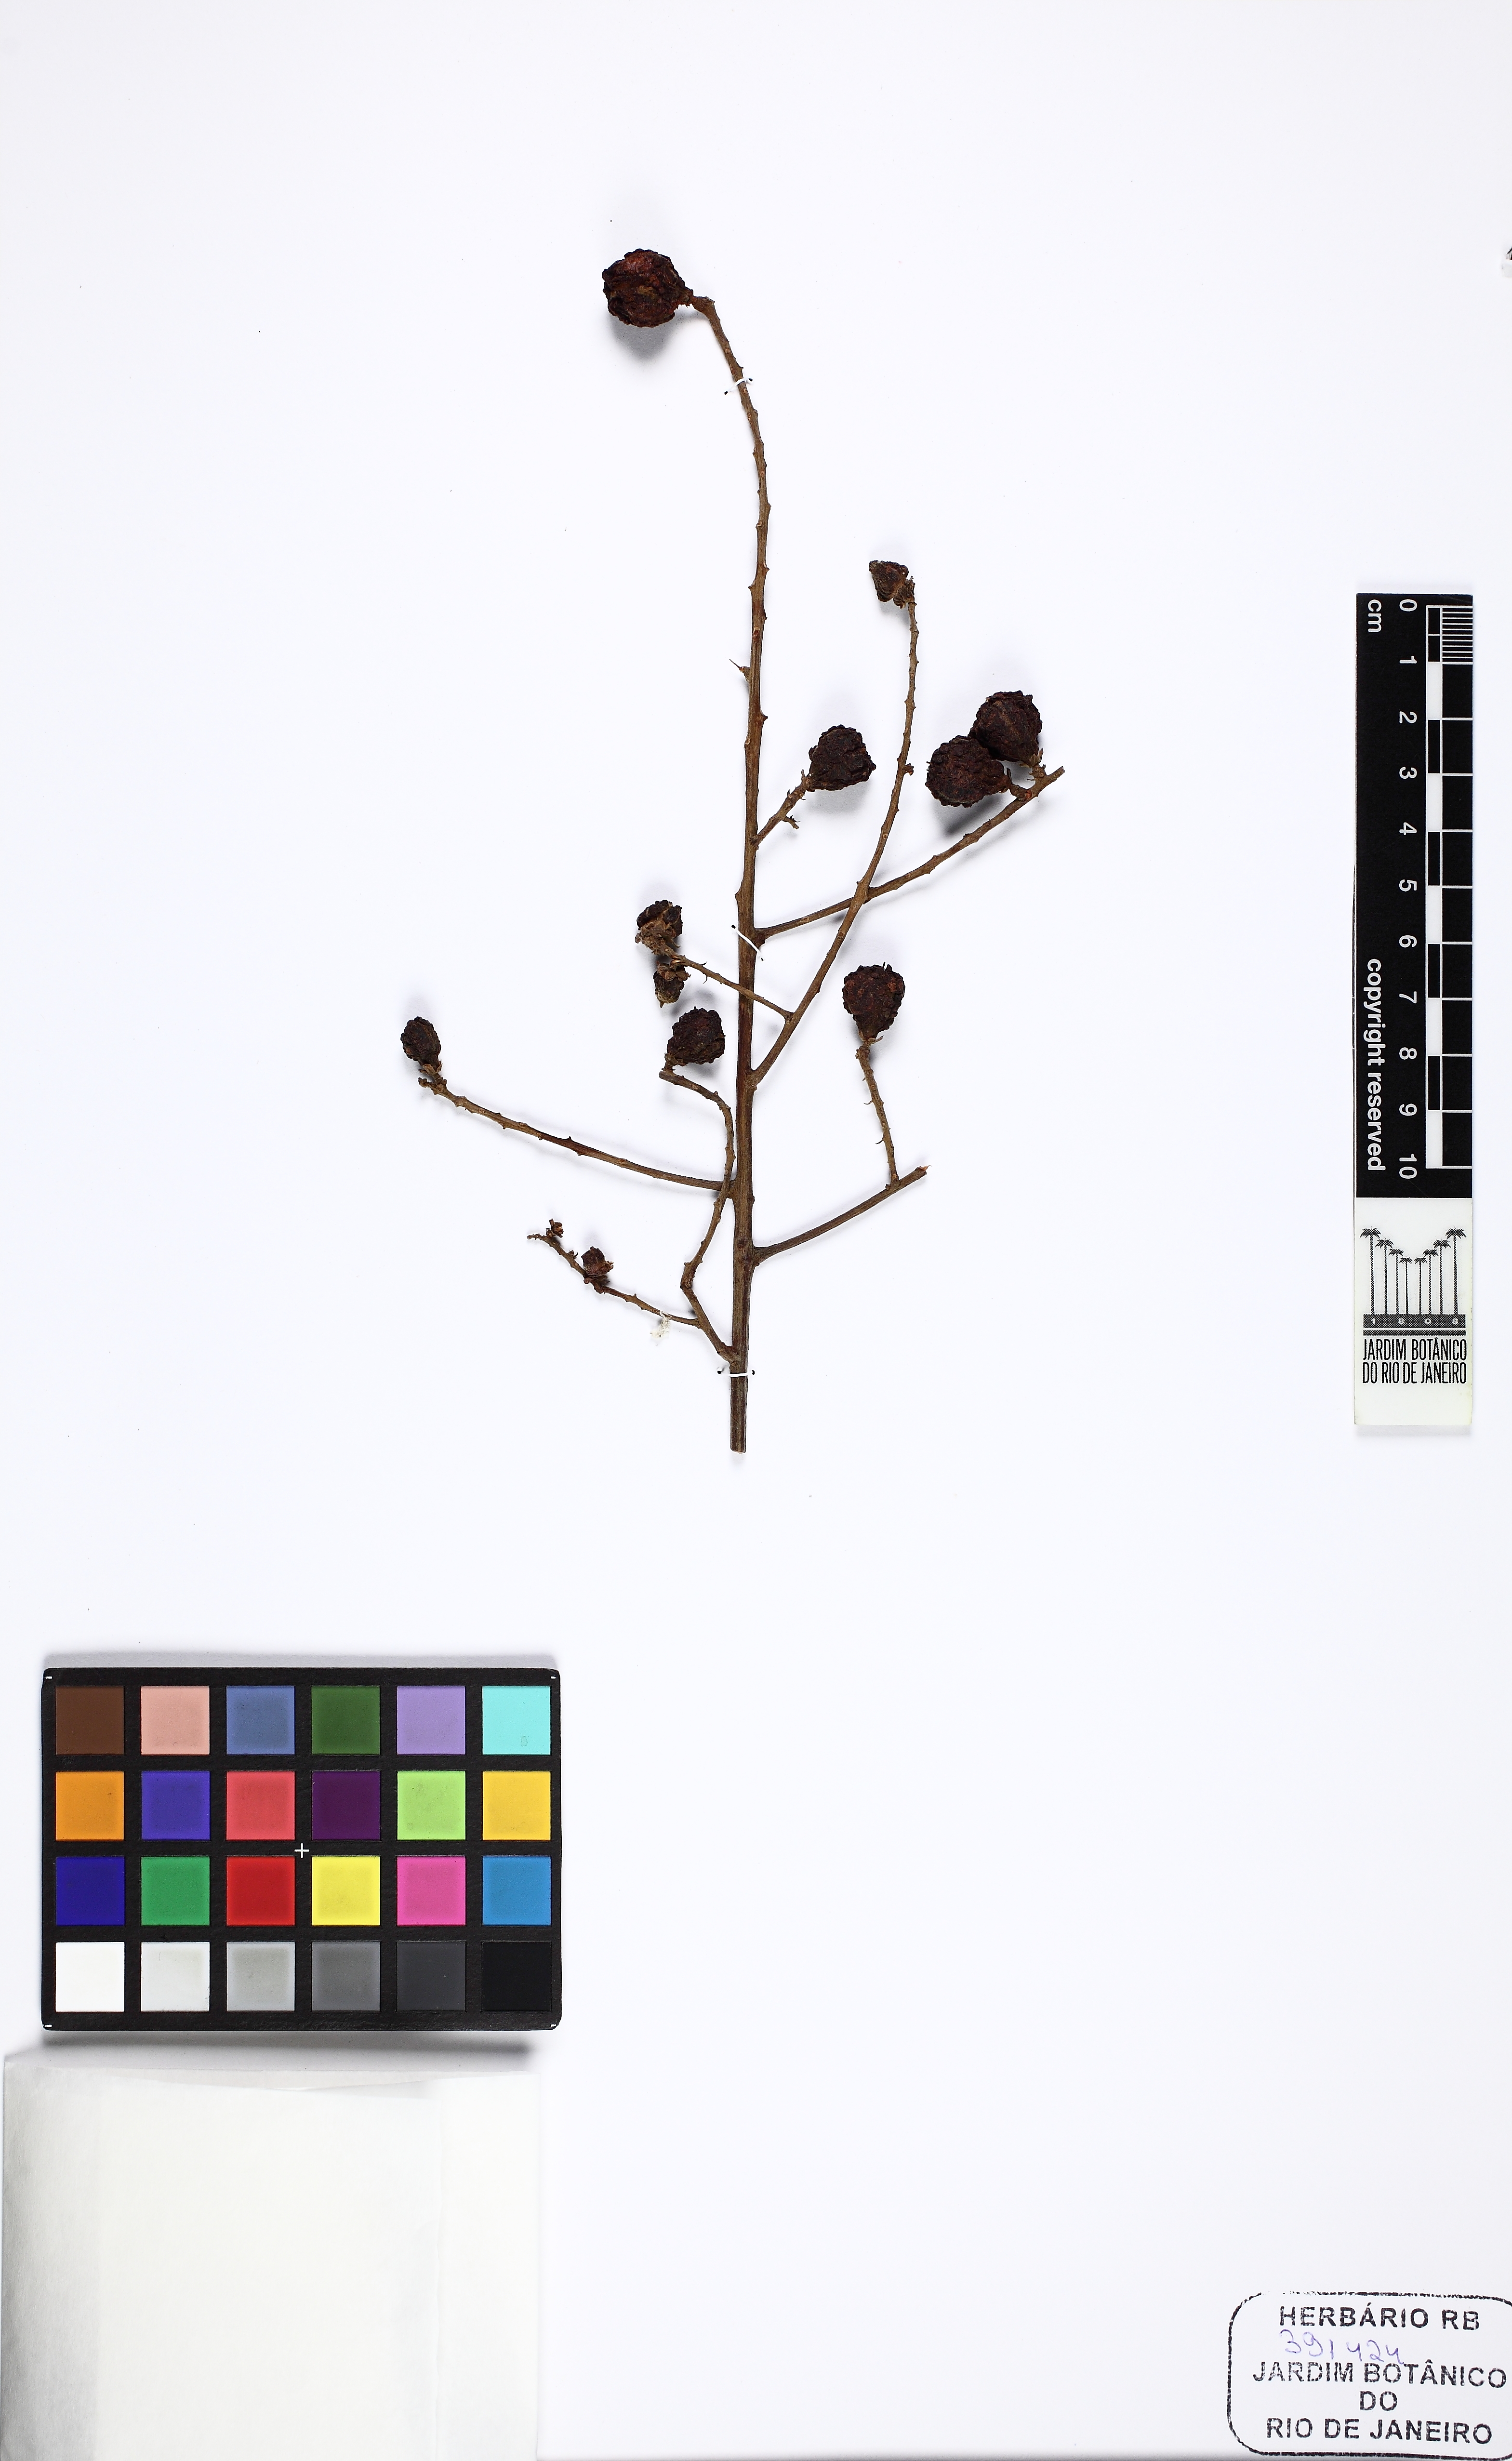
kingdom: Plantae
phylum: Tracheophyta
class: Magnoliopsida
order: Sapindales
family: Sapindaceae
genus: Cupania
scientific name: Cupania vernalis
